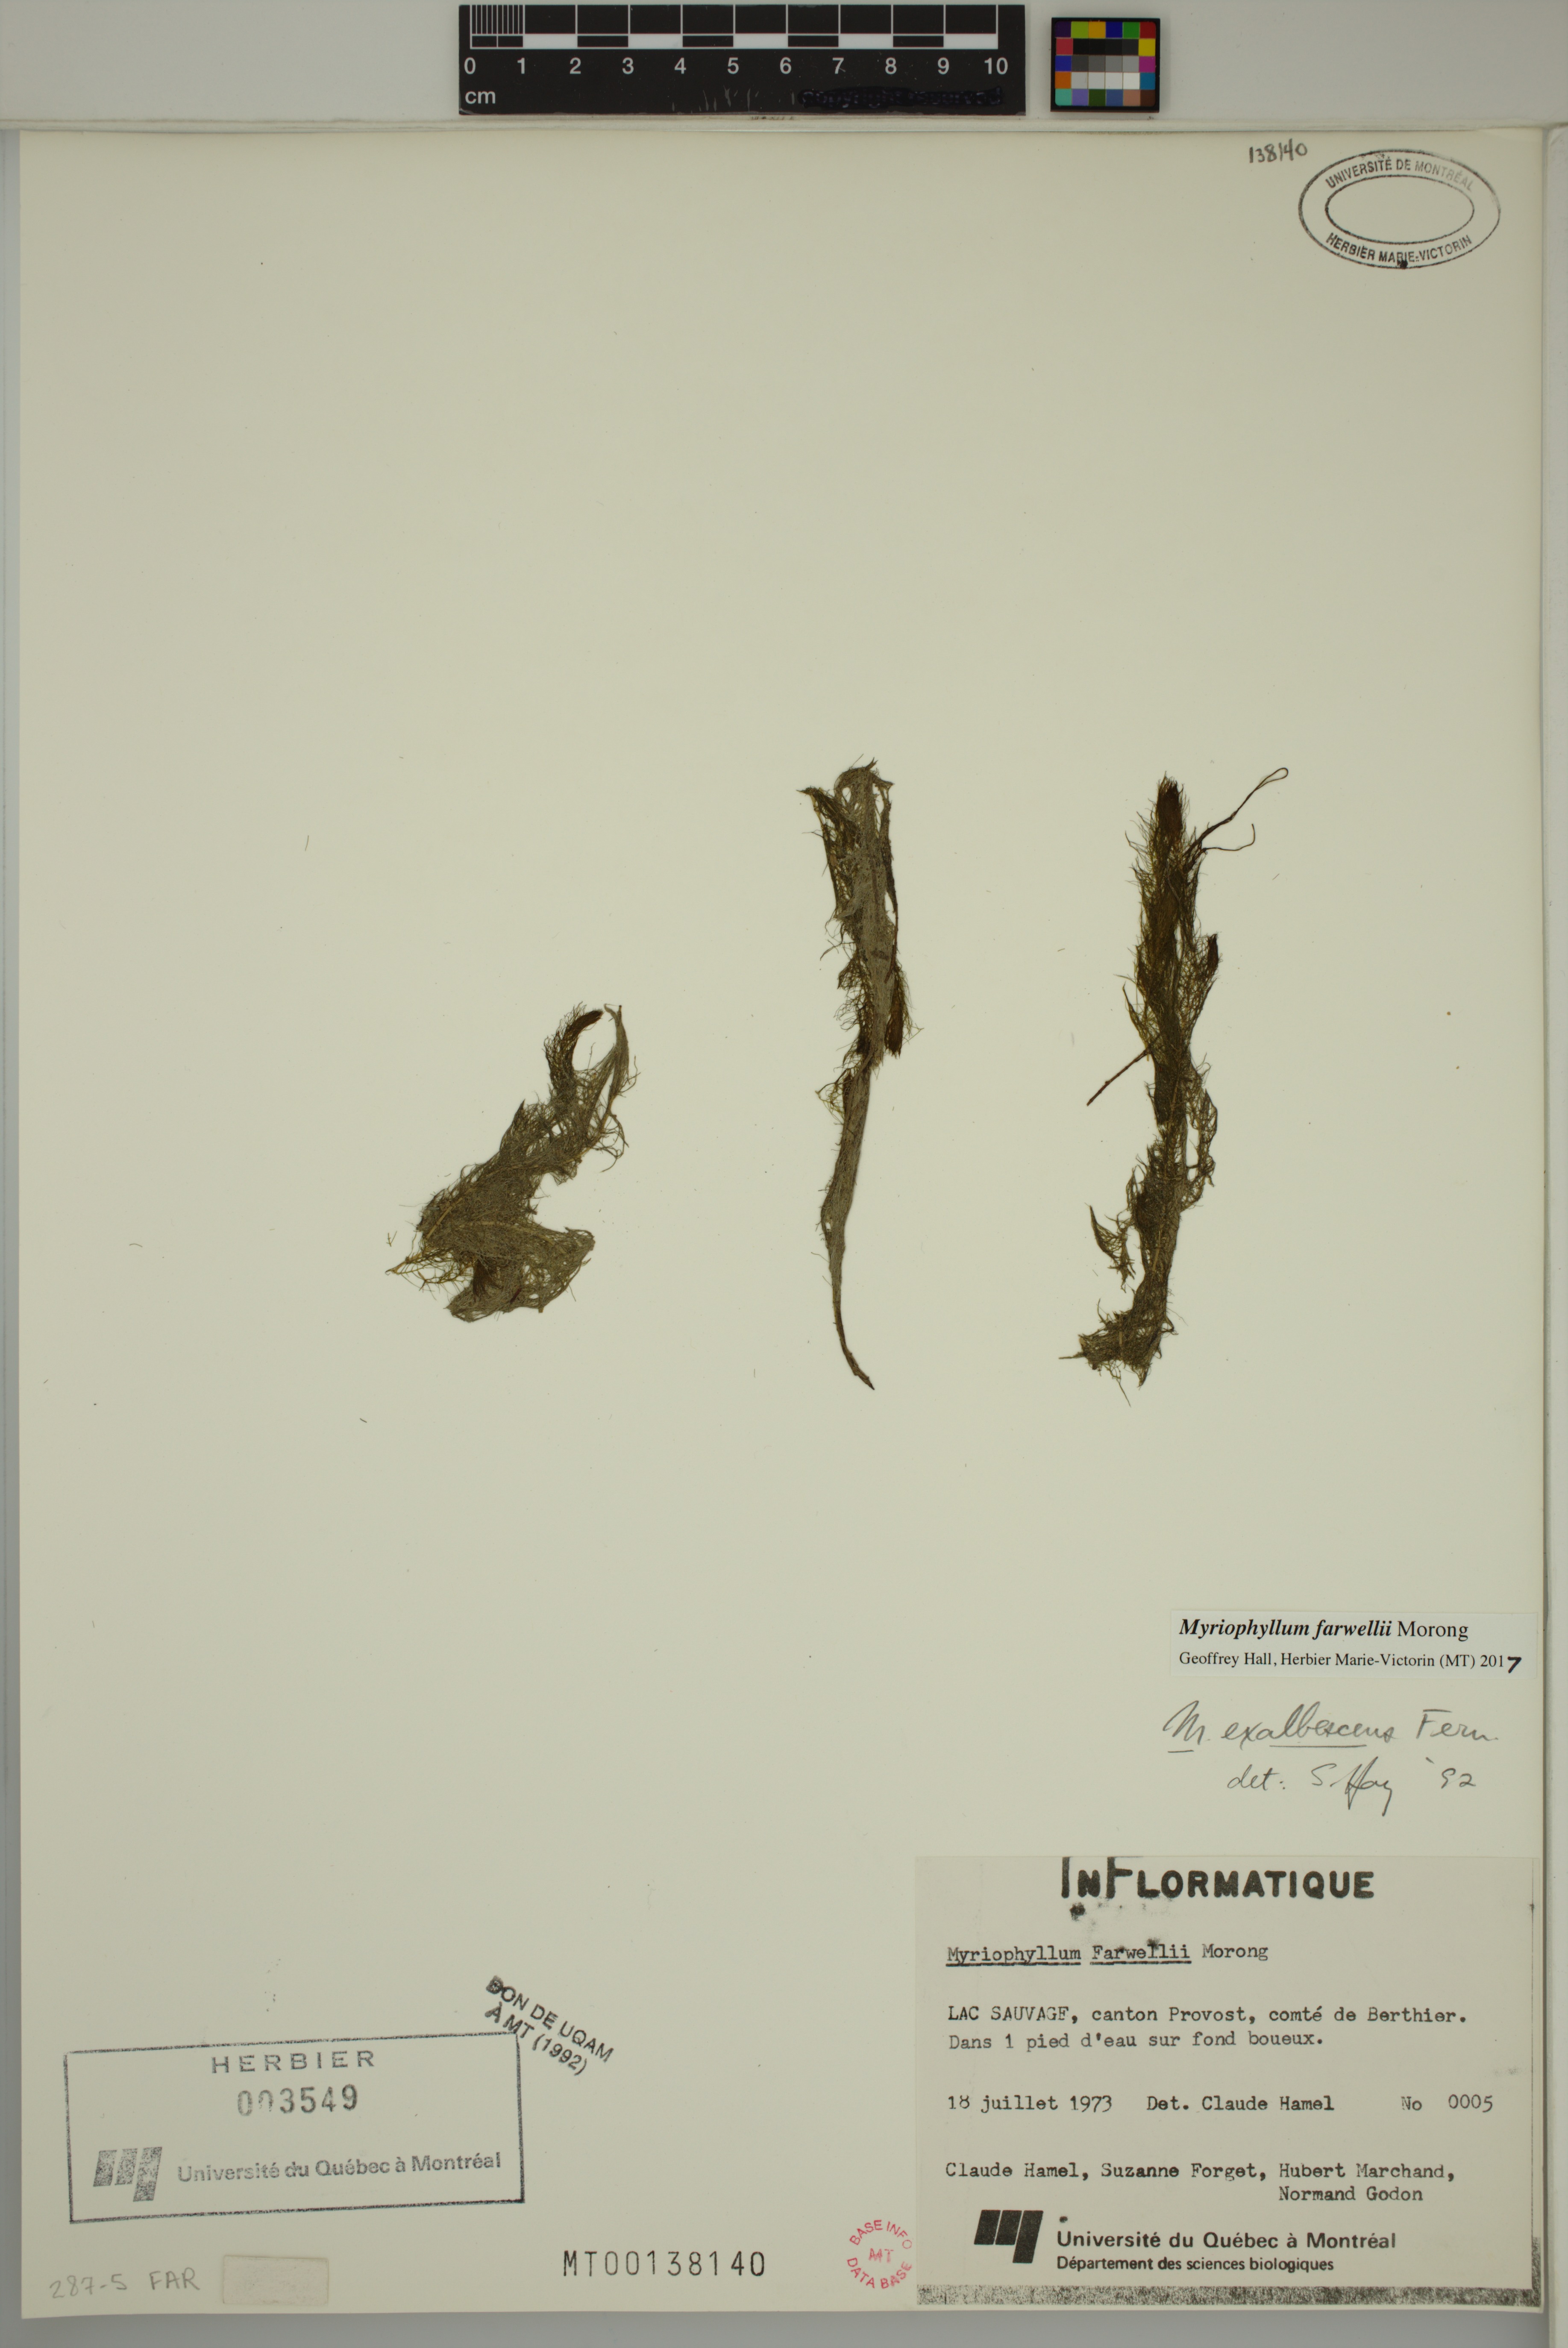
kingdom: Plantae
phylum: Tracheophyta
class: Magnoliopsida
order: Saxifragales
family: Haloragaceae
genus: Myriophyllum
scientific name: Myriophyllum farwellii
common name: Farwell's water-milfoil
